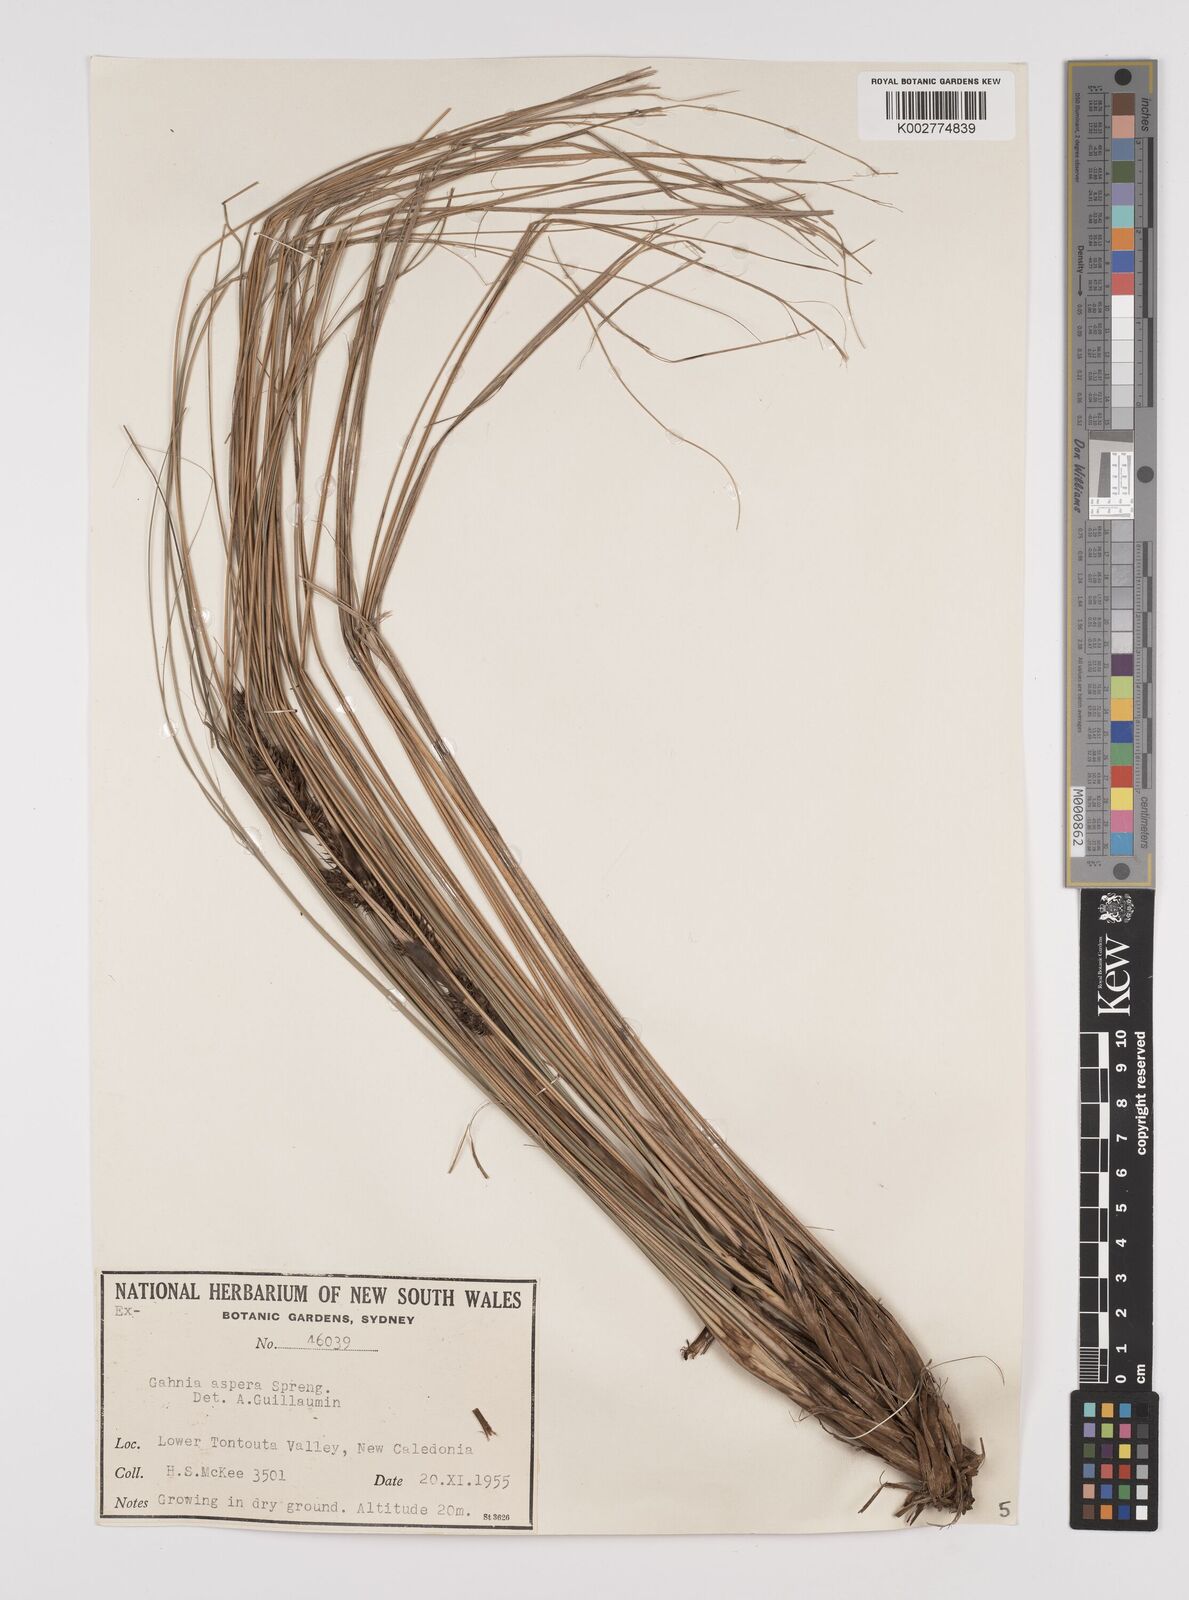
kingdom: Plantae
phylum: Tracheophyta
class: Liliopsida
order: Poales
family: Cyperaceae
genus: Gahnia
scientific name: Gahnia aspera
